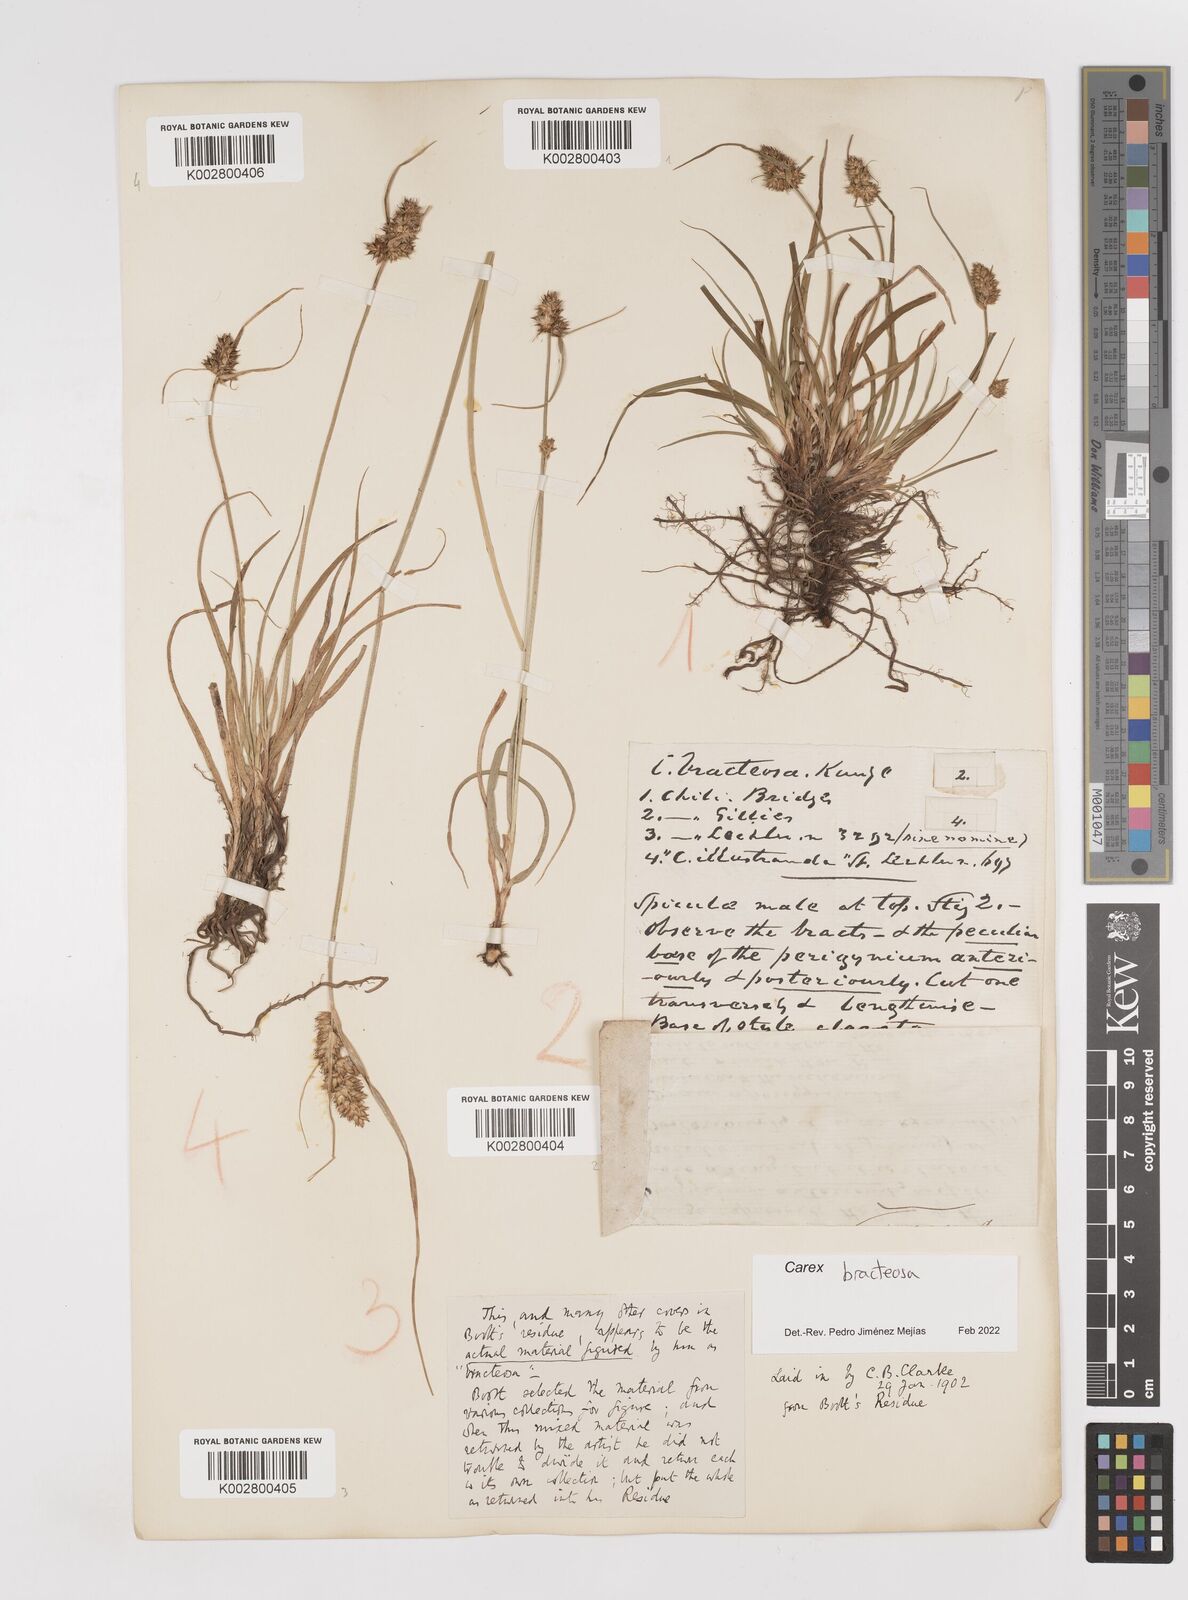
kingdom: Plantae
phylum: Tracheophyta
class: Liliopsida
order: Poales
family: Cyperaceae
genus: Carex
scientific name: Carex bracteosa
